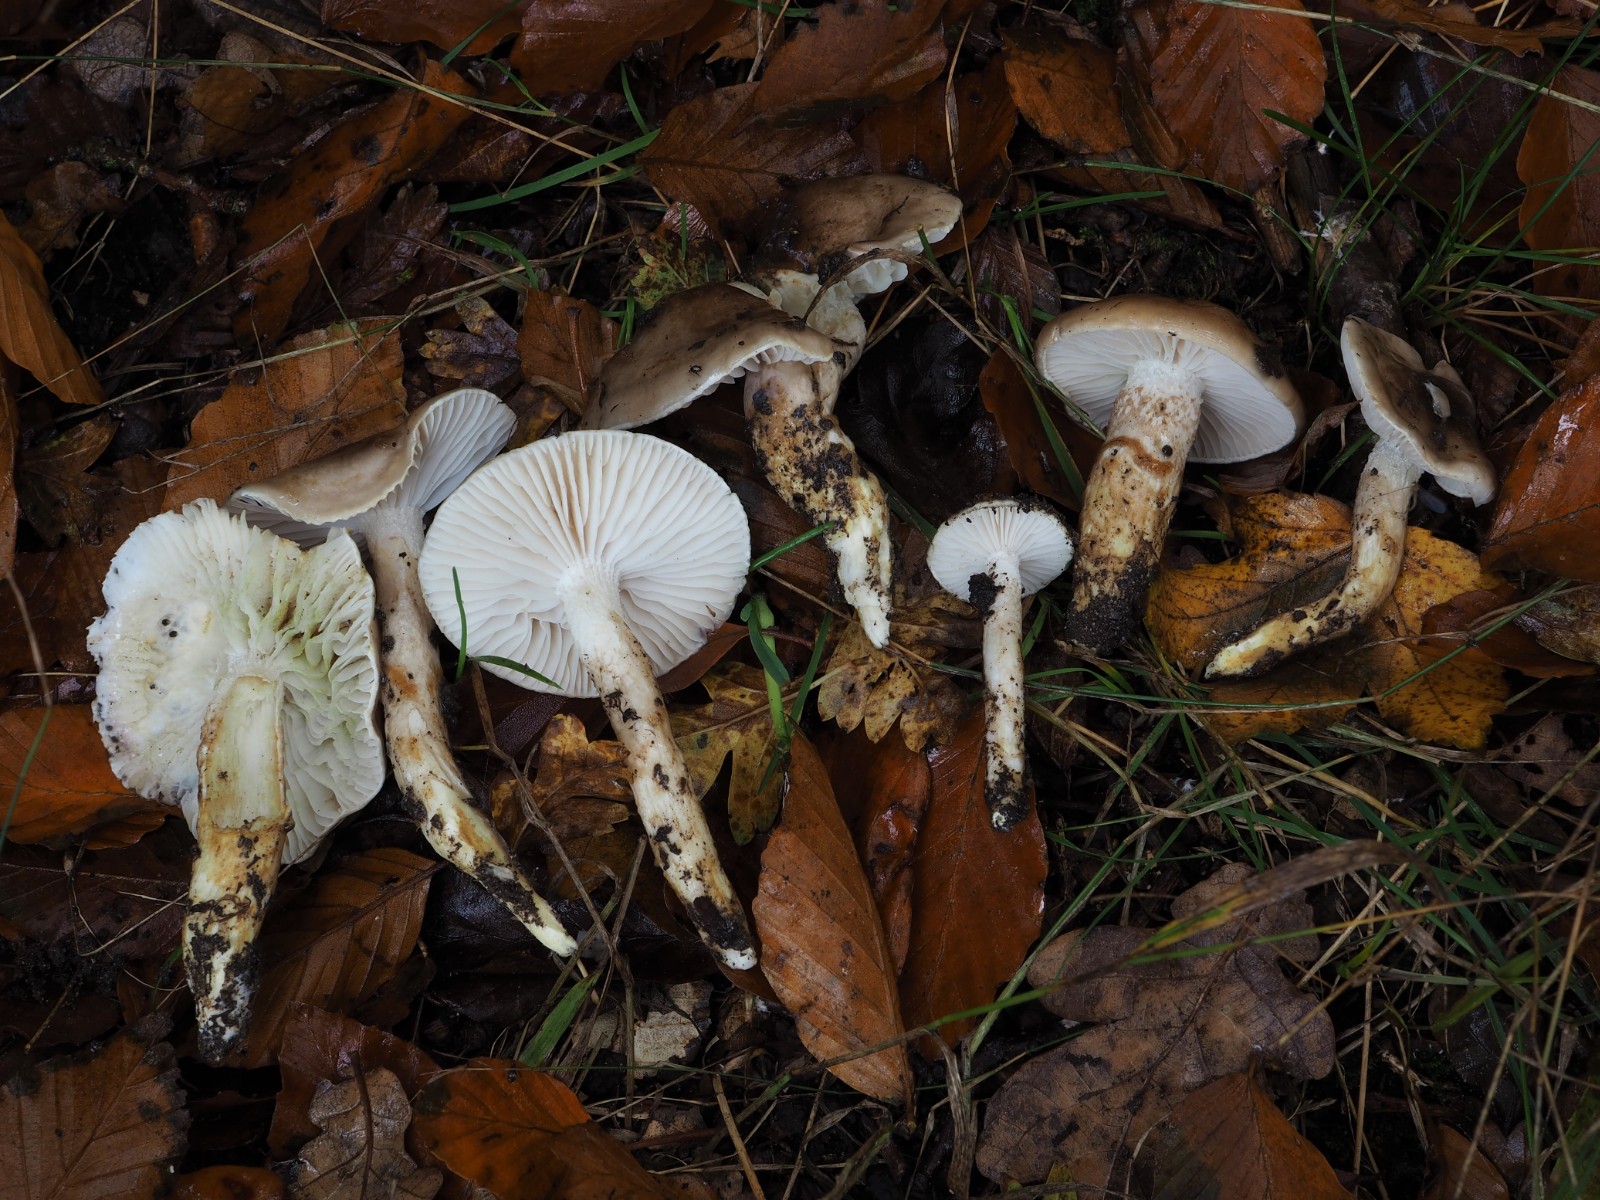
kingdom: Fungi
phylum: Basidiomycota
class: Agaricomycetes
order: Agaricales
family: Hygrophoraceae
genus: Hygrophorus
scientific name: Hygrophorus glutinifer
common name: tvefarvet sneglehat
